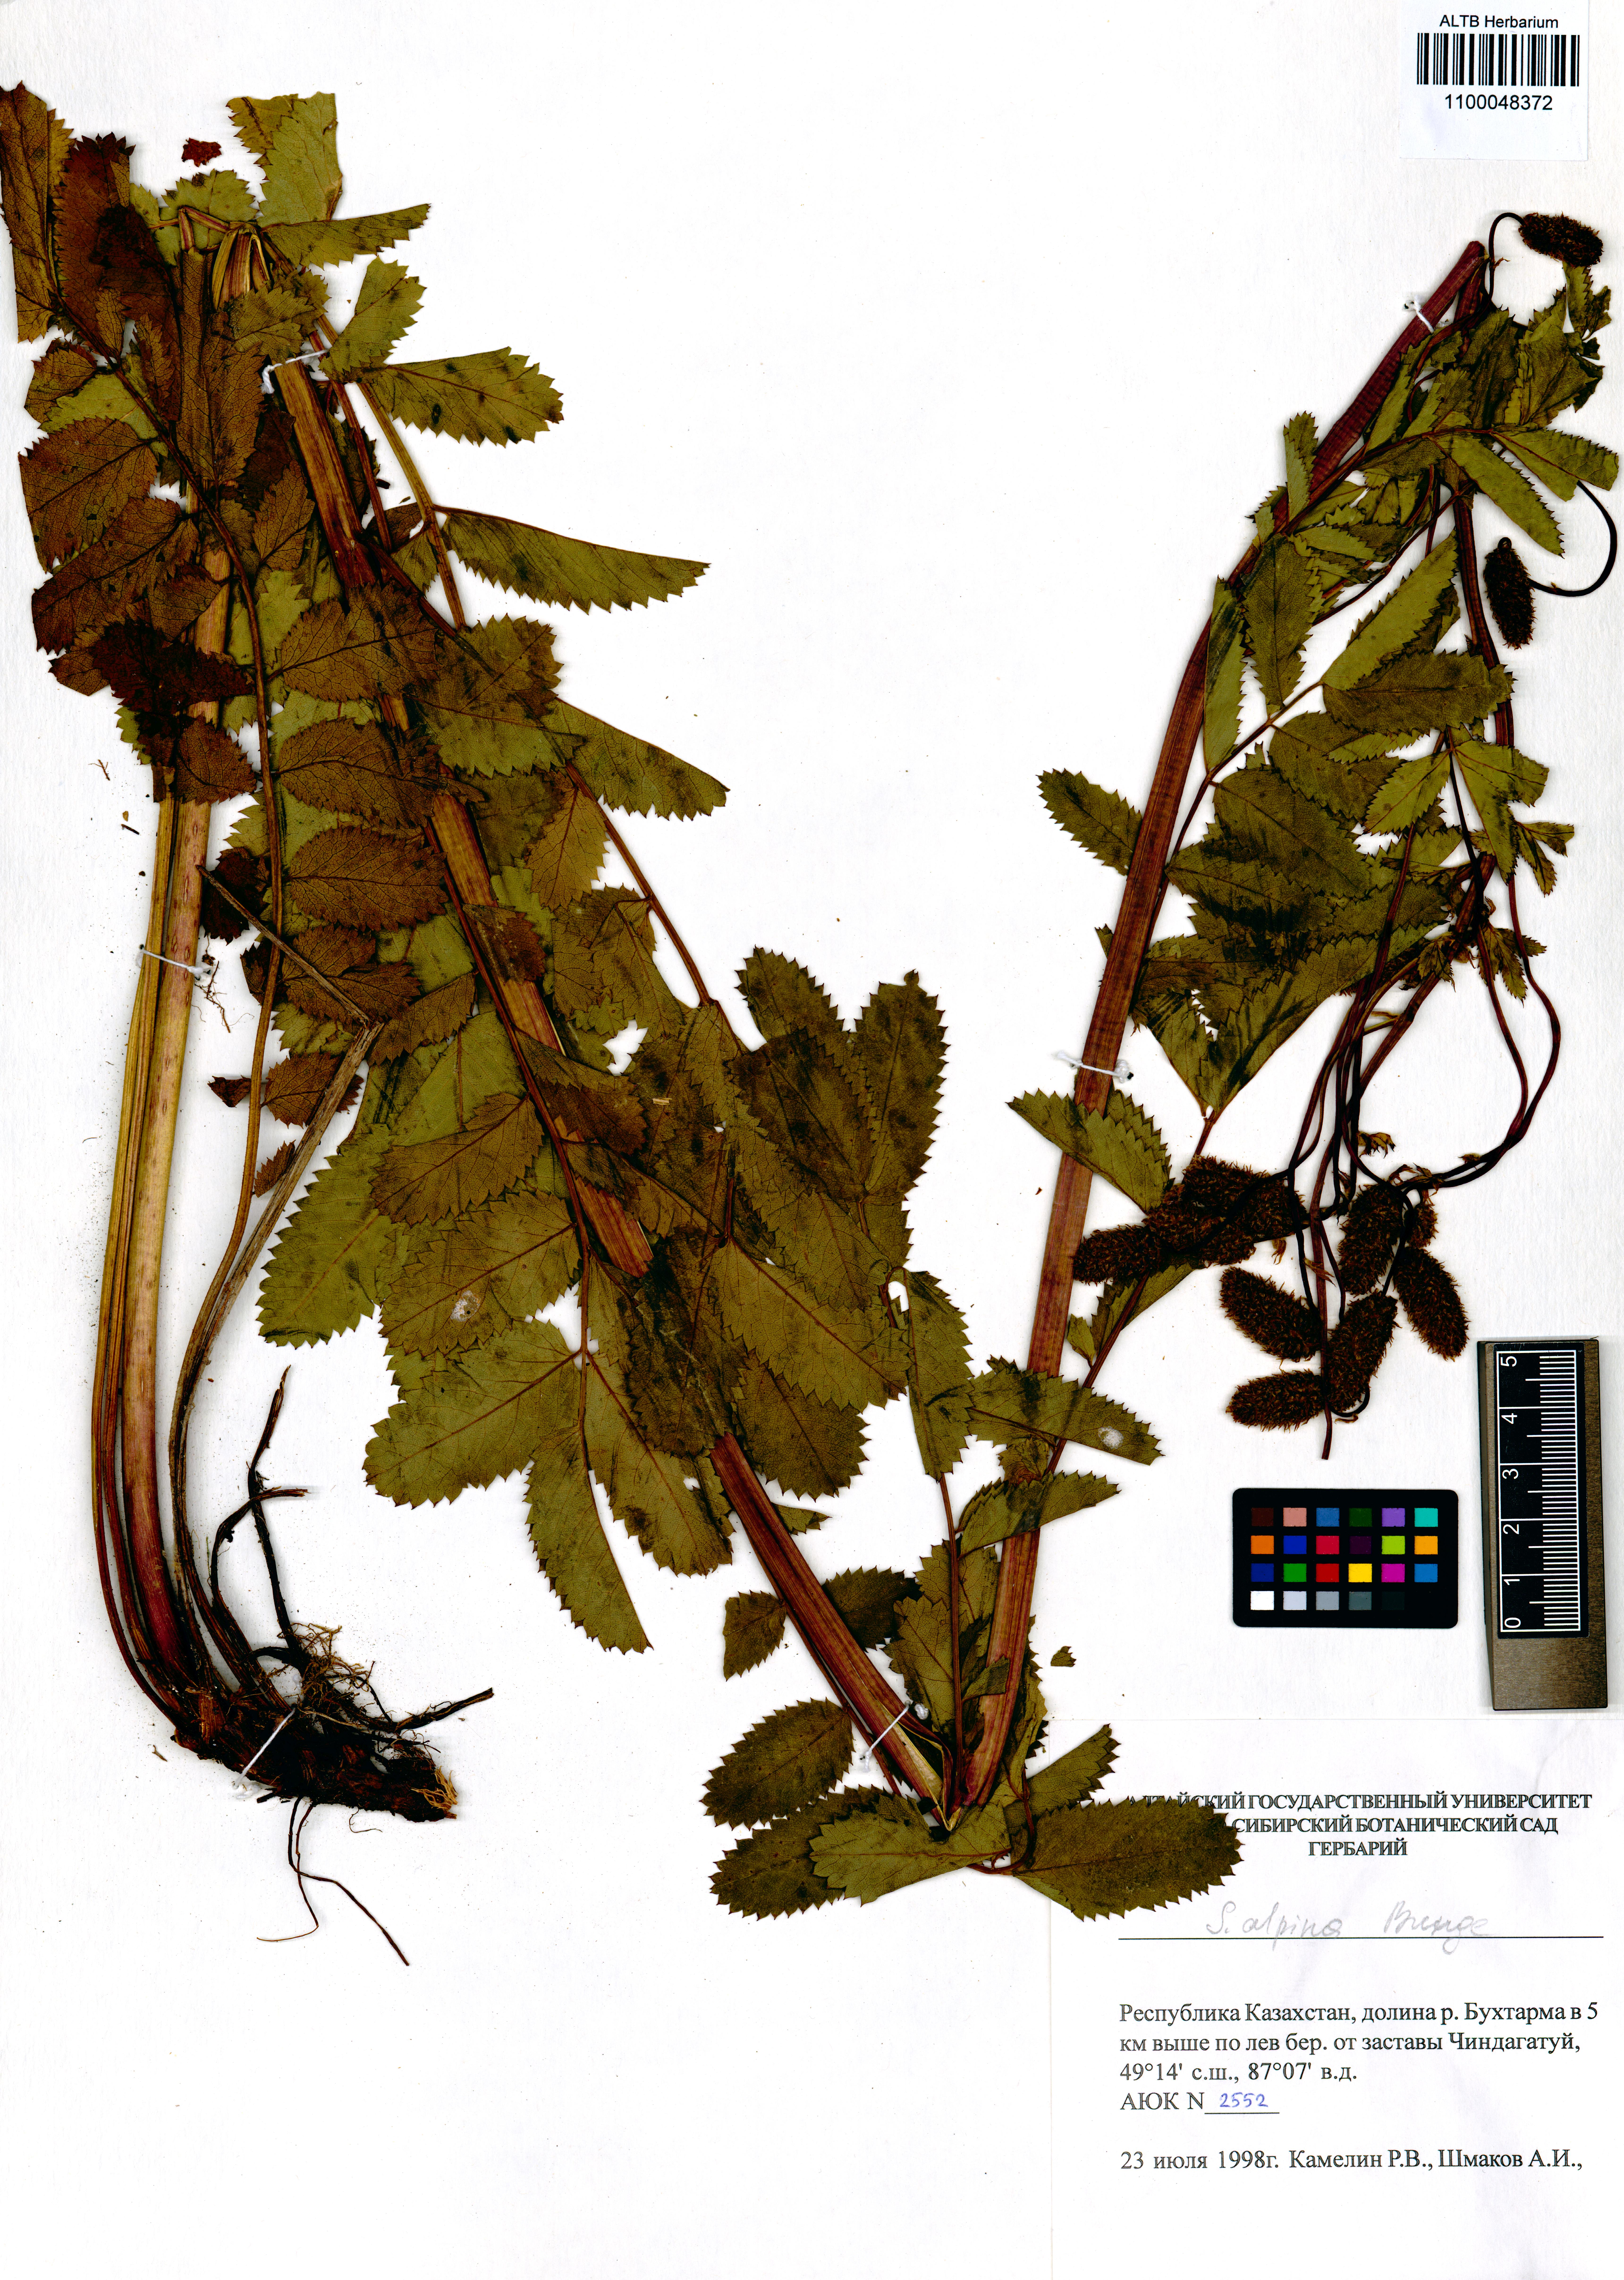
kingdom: Plantae
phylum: Tracheophyta
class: Magnoliopsida
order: Rosales
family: Rosaceae
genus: Sanguisorba
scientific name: Sanguisorba alpina
